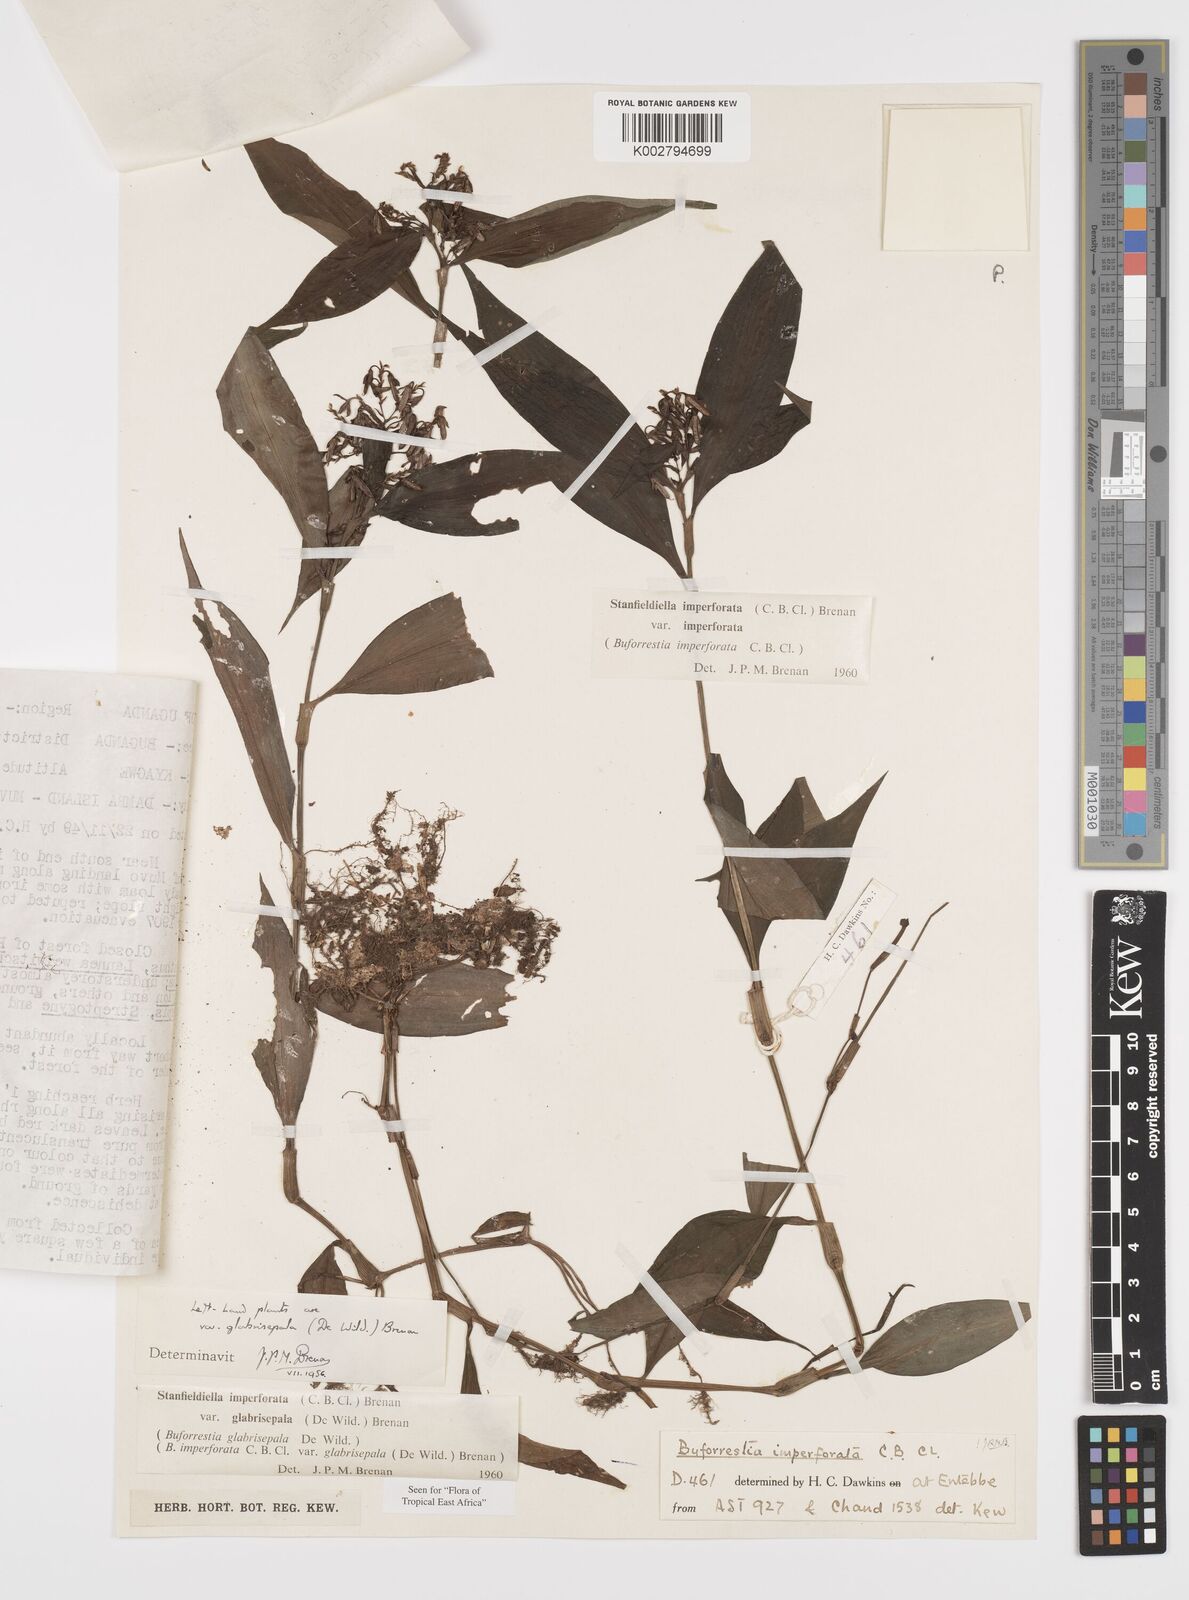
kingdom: Plantae
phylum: Tracheophyta
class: Liliopsida
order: Commelinales
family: Commelinaceae
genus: Stanfieldiella
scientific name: Stanfieldiella imperforata
